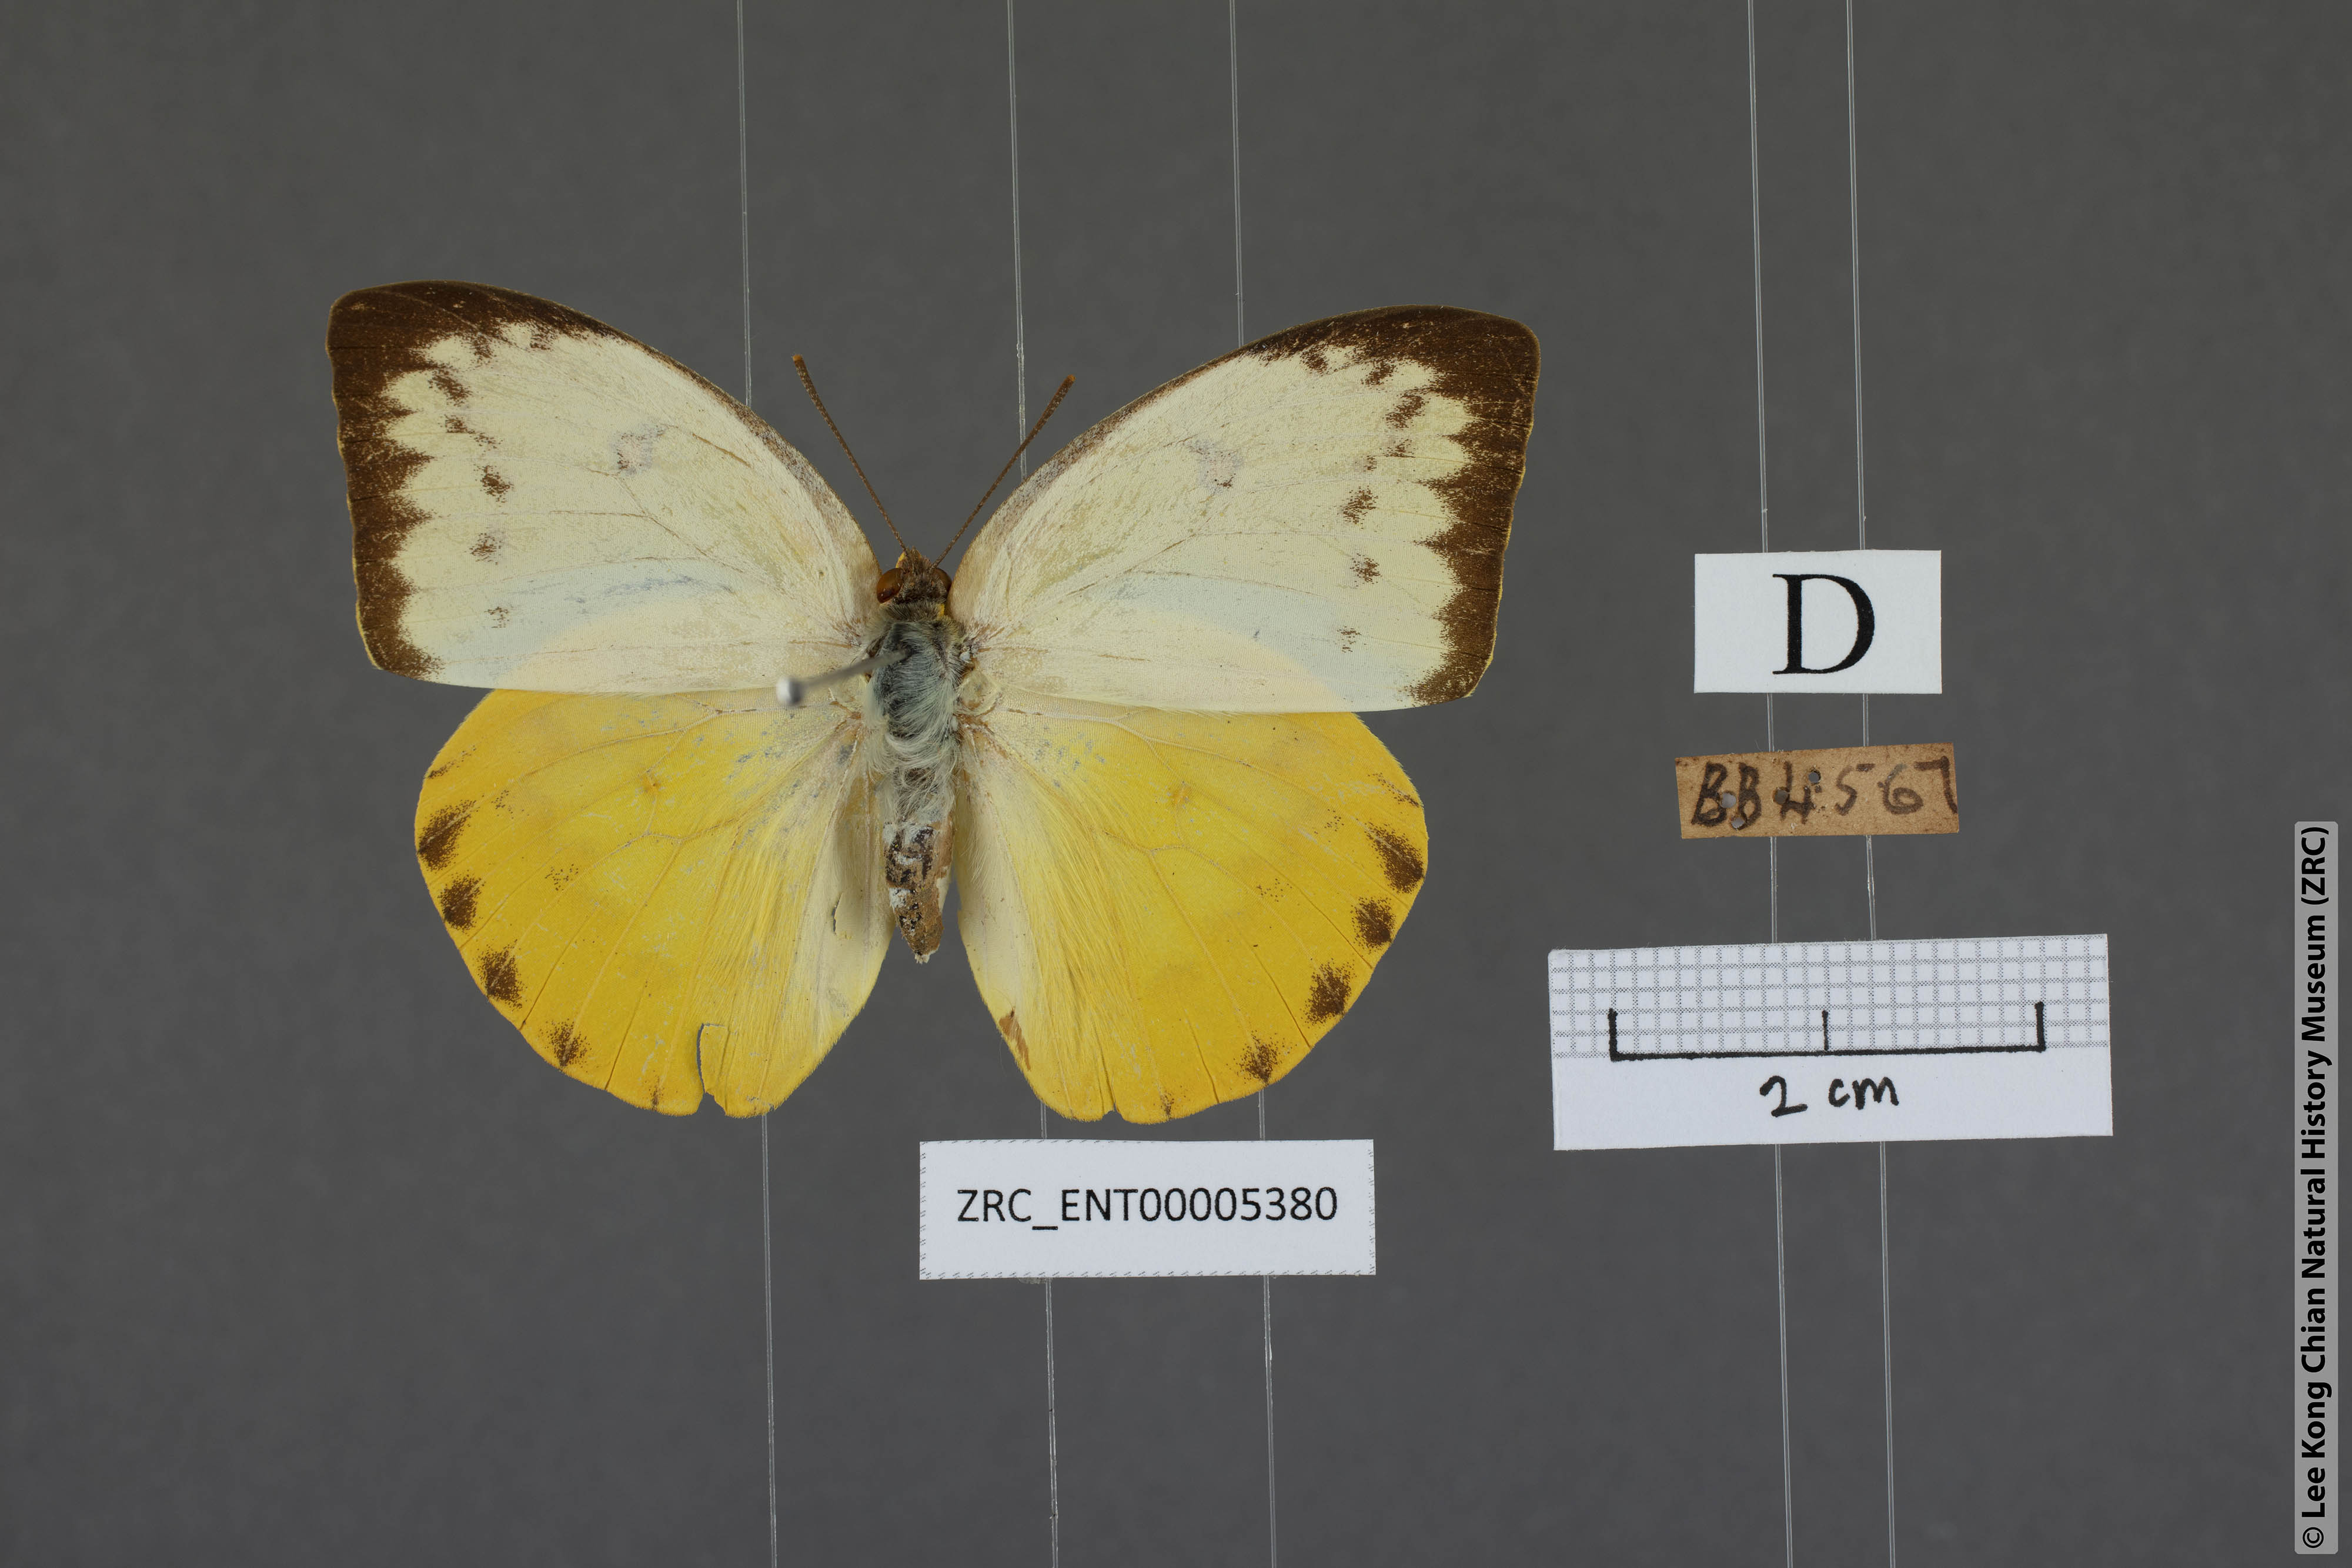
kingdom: Animalia
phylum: Arthropoda
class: Insecta
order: Lepidoptera
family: Pieridae
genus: Catopsilia
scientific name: Catopsilia scylla
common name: Orange emigrant
